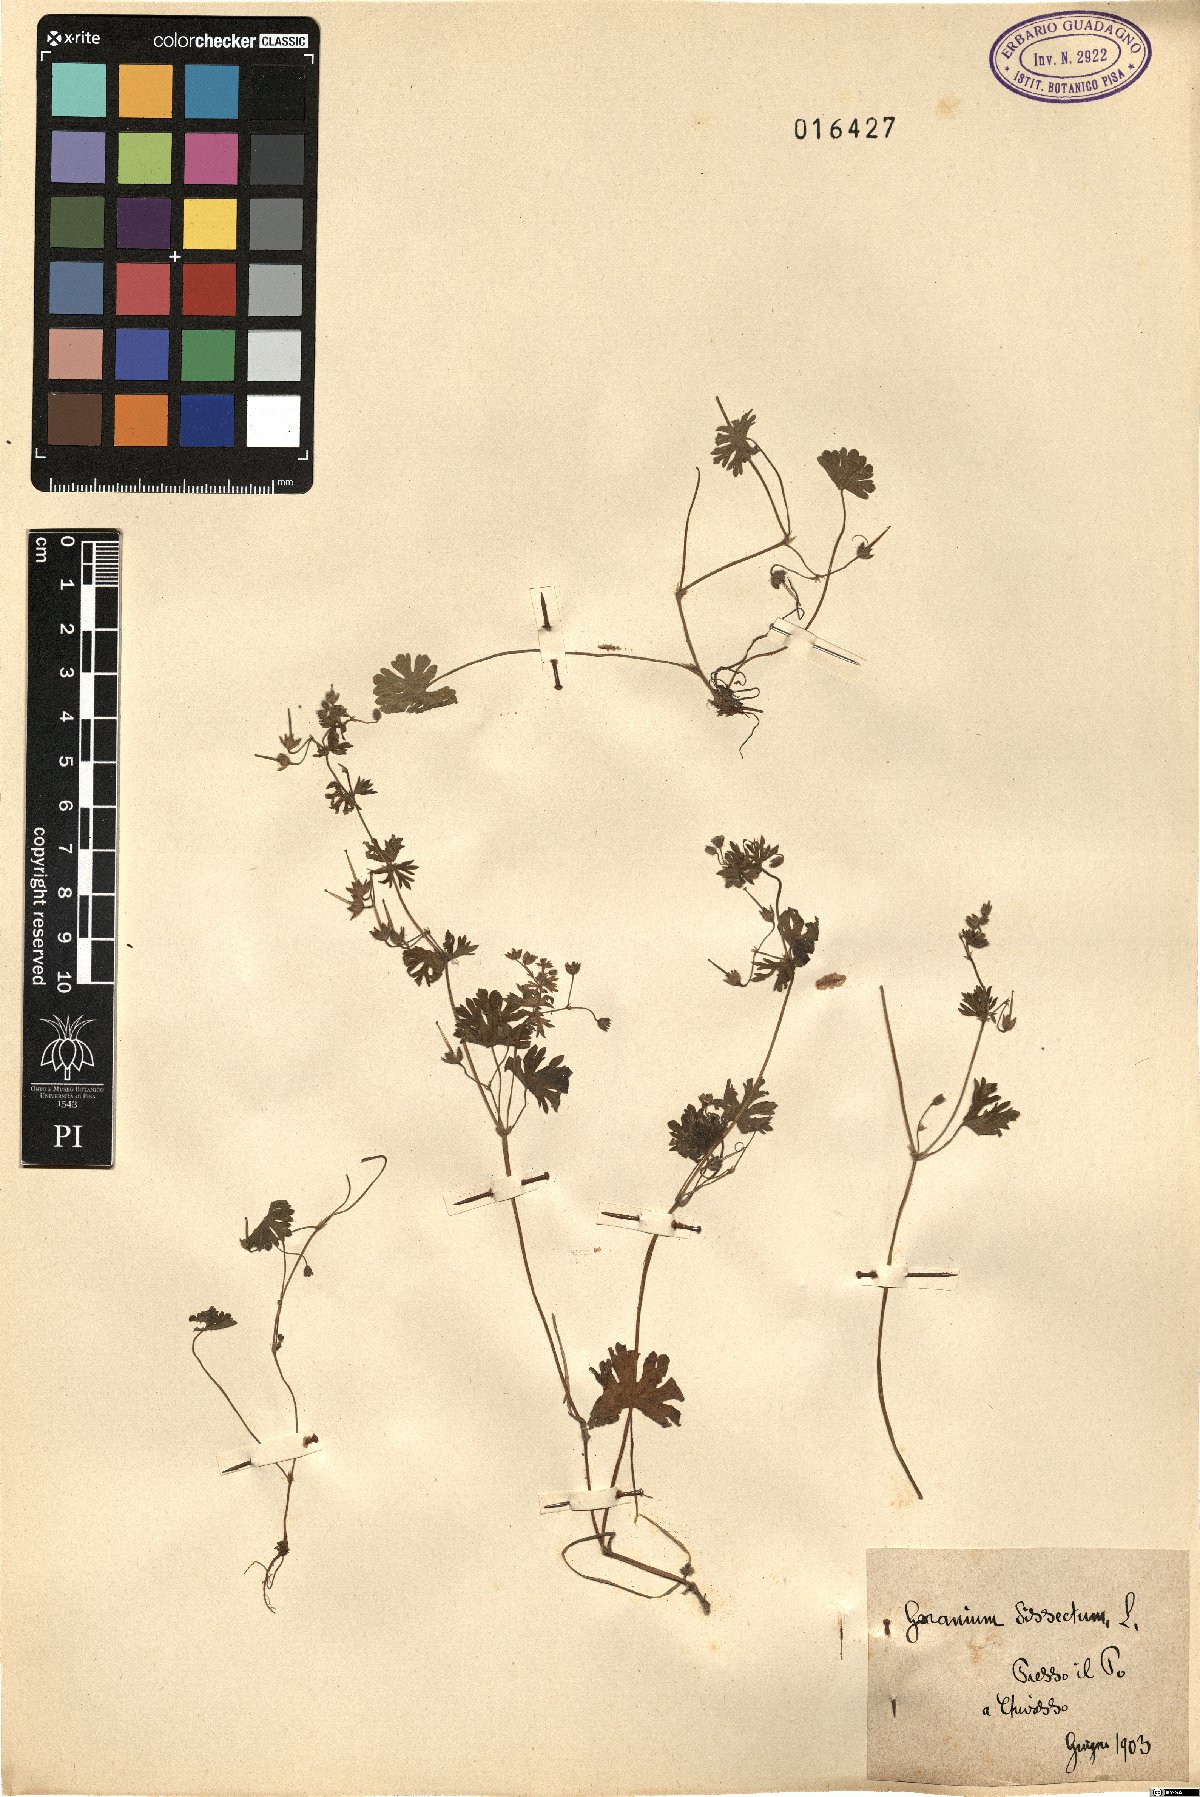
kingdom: Plantae
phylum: Tracheophyta
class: Magnoliopsida
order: Geraniales
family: Geraniaceae
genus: Geranium
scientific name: Geranium dissectum
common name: Cut-leaved crane's-bill
